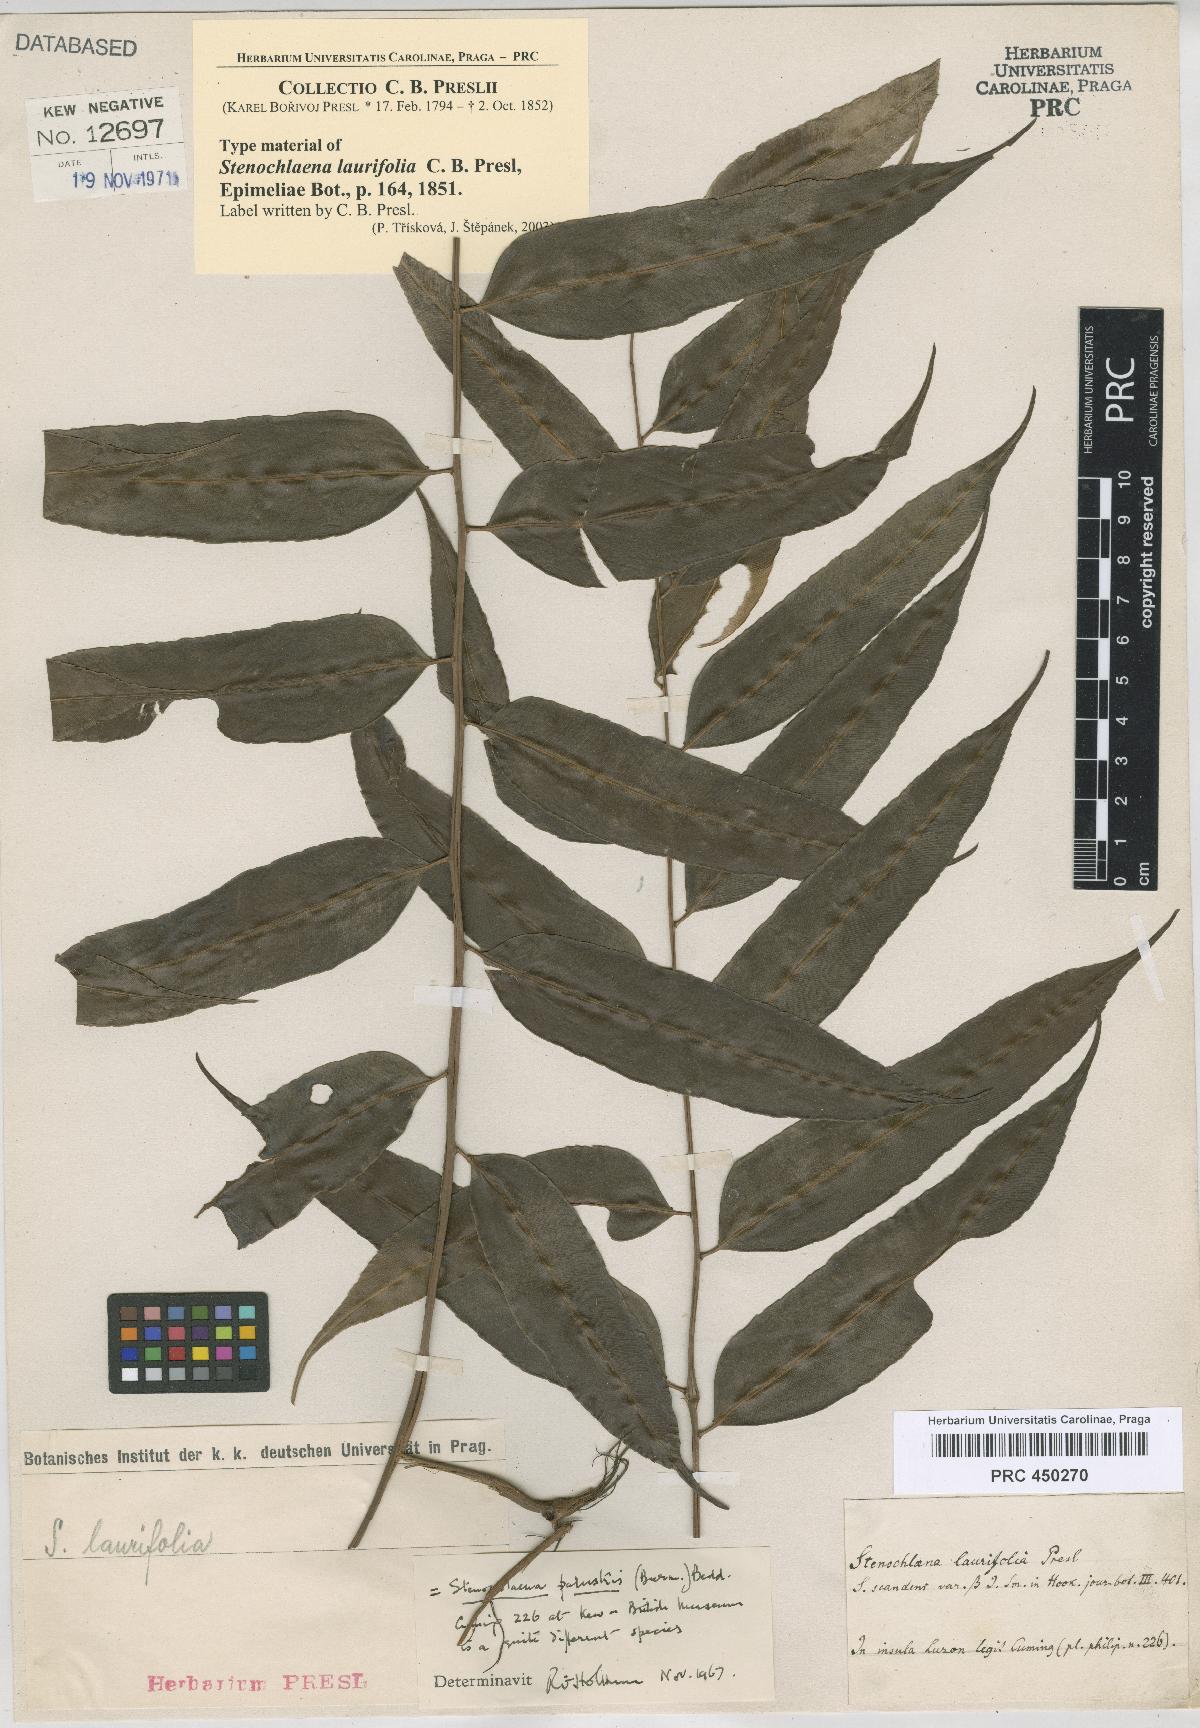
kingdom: Plantae
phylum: Tracheophyta
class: Polypodiopsida
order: Polypodiales
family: Blechnaceae
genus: Stenochlaena
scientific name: Stenochlaena palustris
